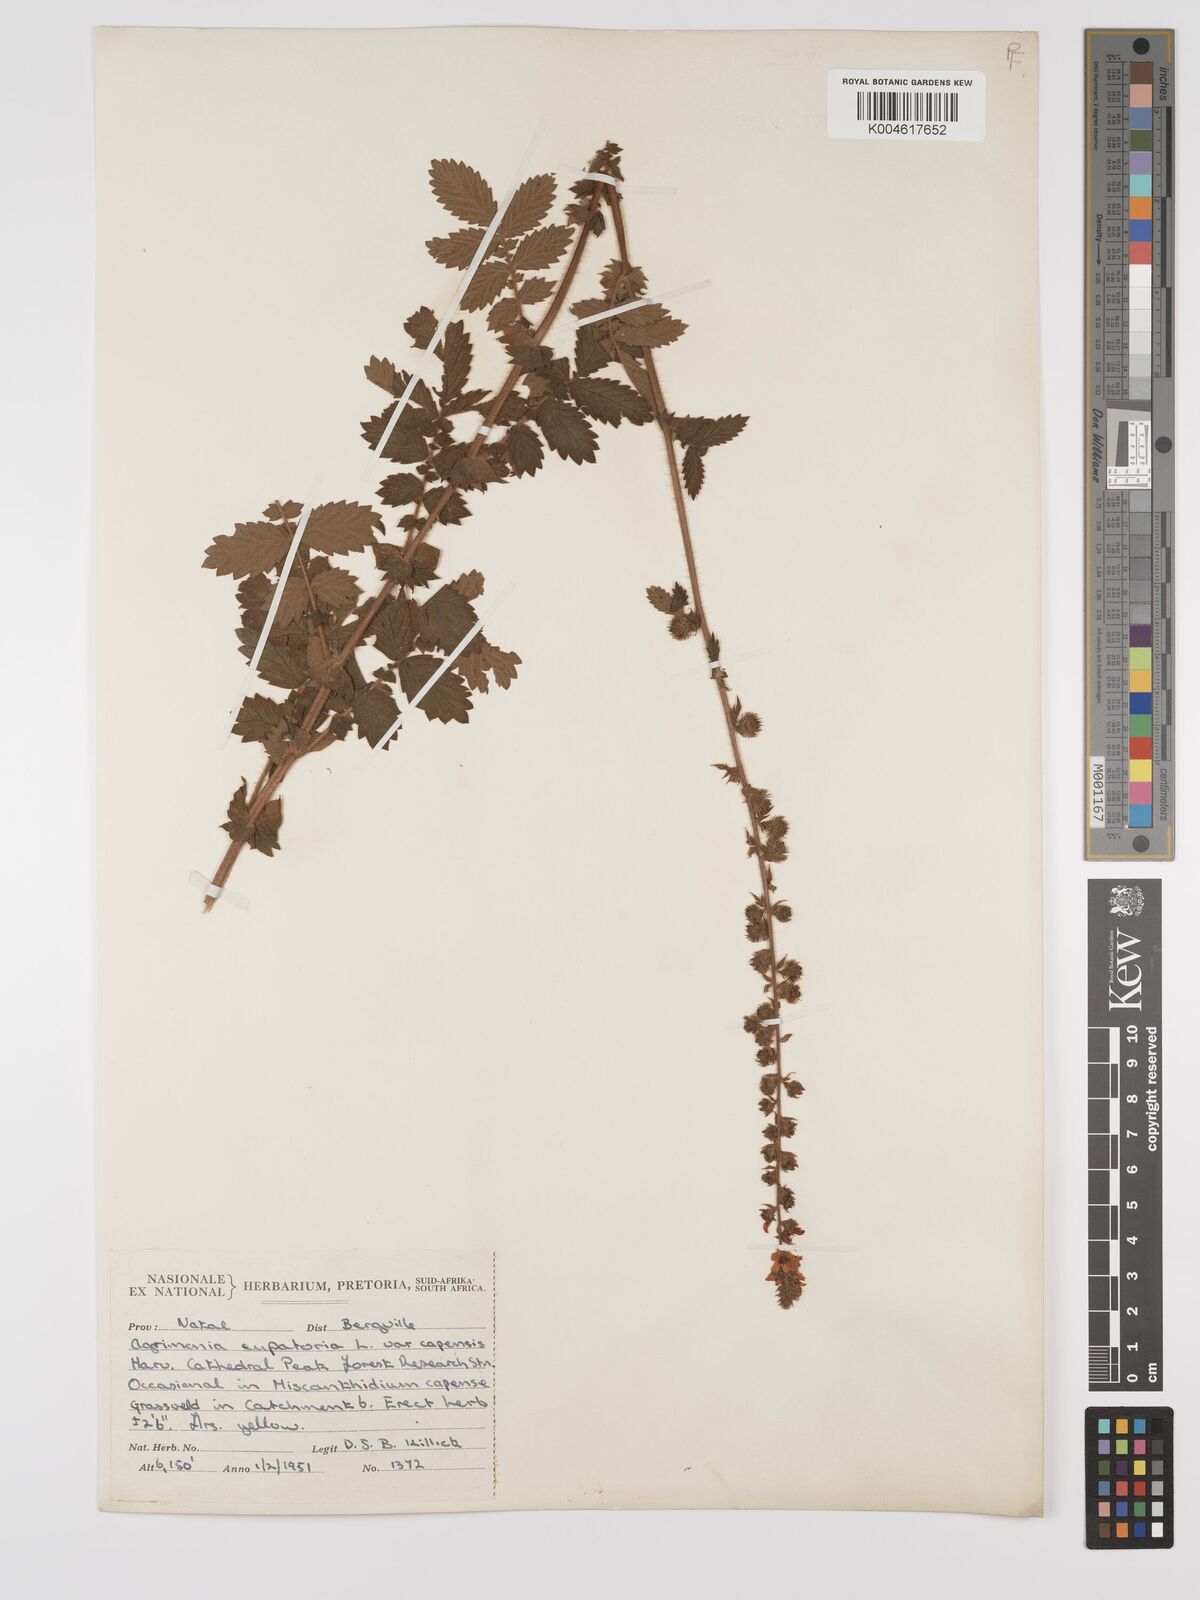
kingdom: Plantae
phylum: Tracheophyta
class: Magnoliopsida
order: Rosales
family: Rosaceae
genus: Agrimonia
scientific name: Agrimonia eupatoria
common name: Agrimony
